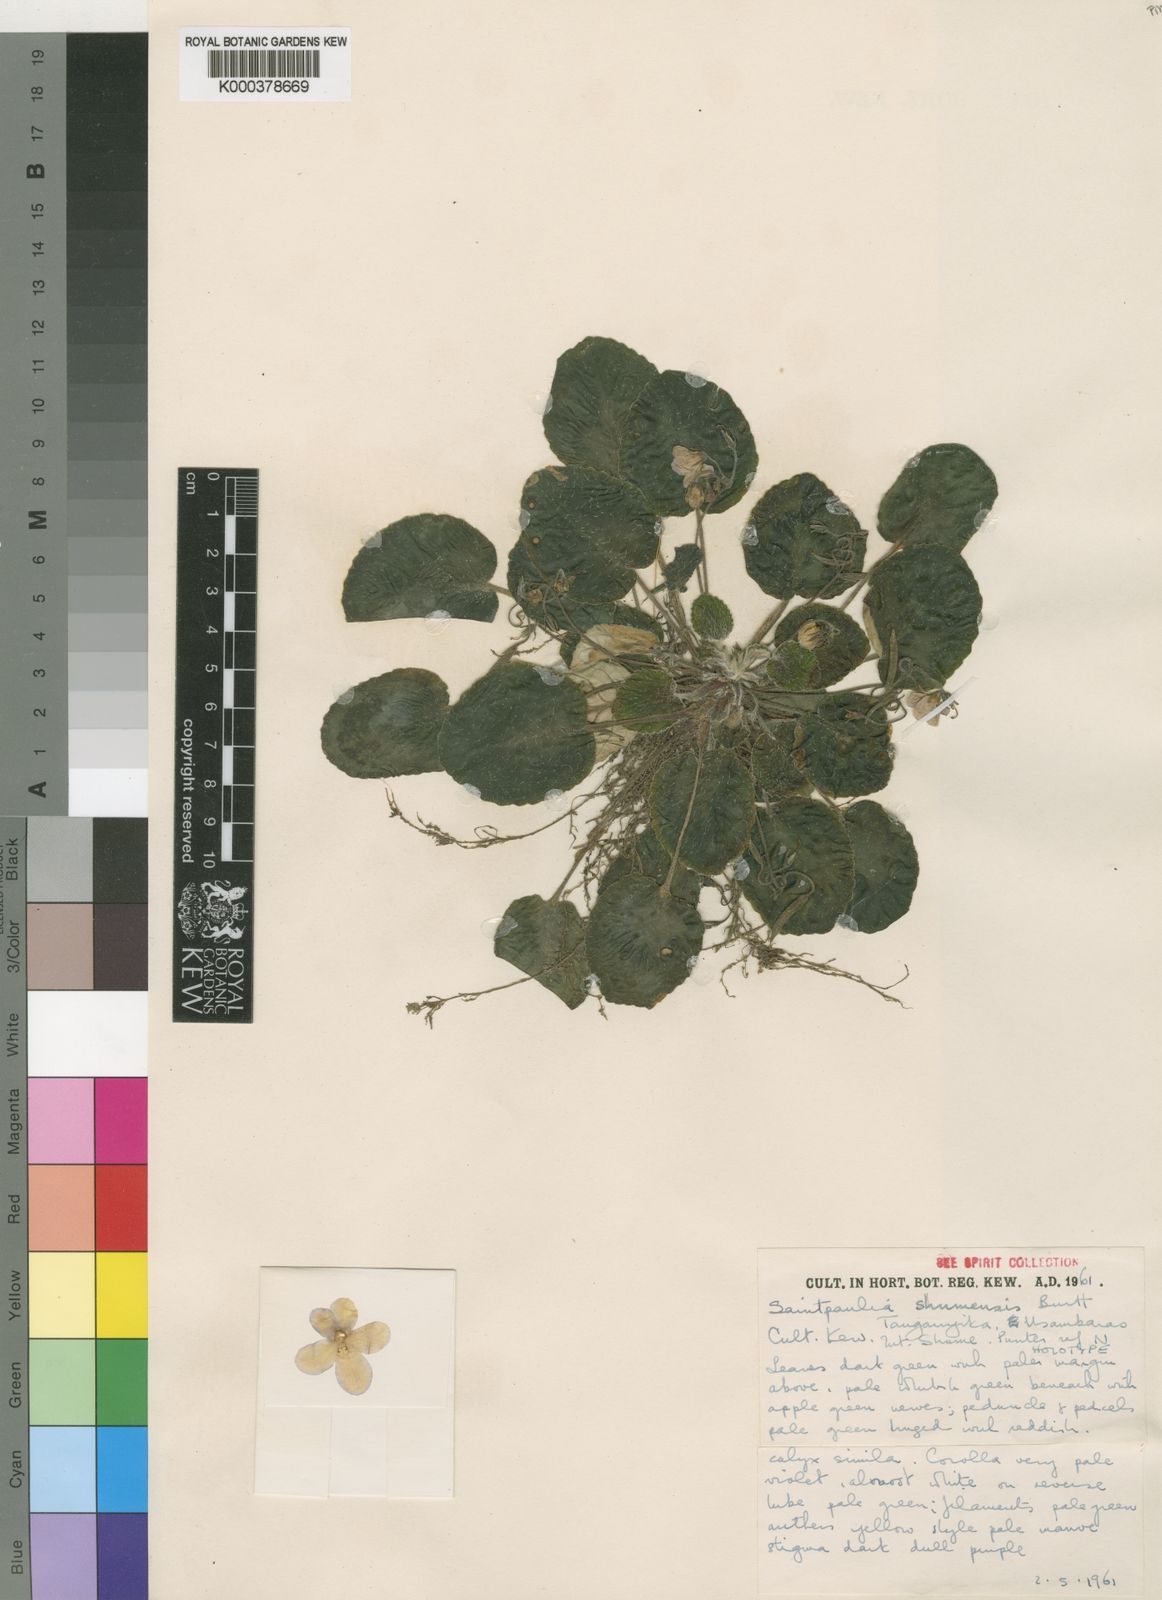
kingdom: Plantae
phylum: Tracheophyta
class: Magnoliopsida
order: Lamiales
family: Gesneriaceae
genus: Streptocarpus
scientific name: Streptocarpus shumensis
